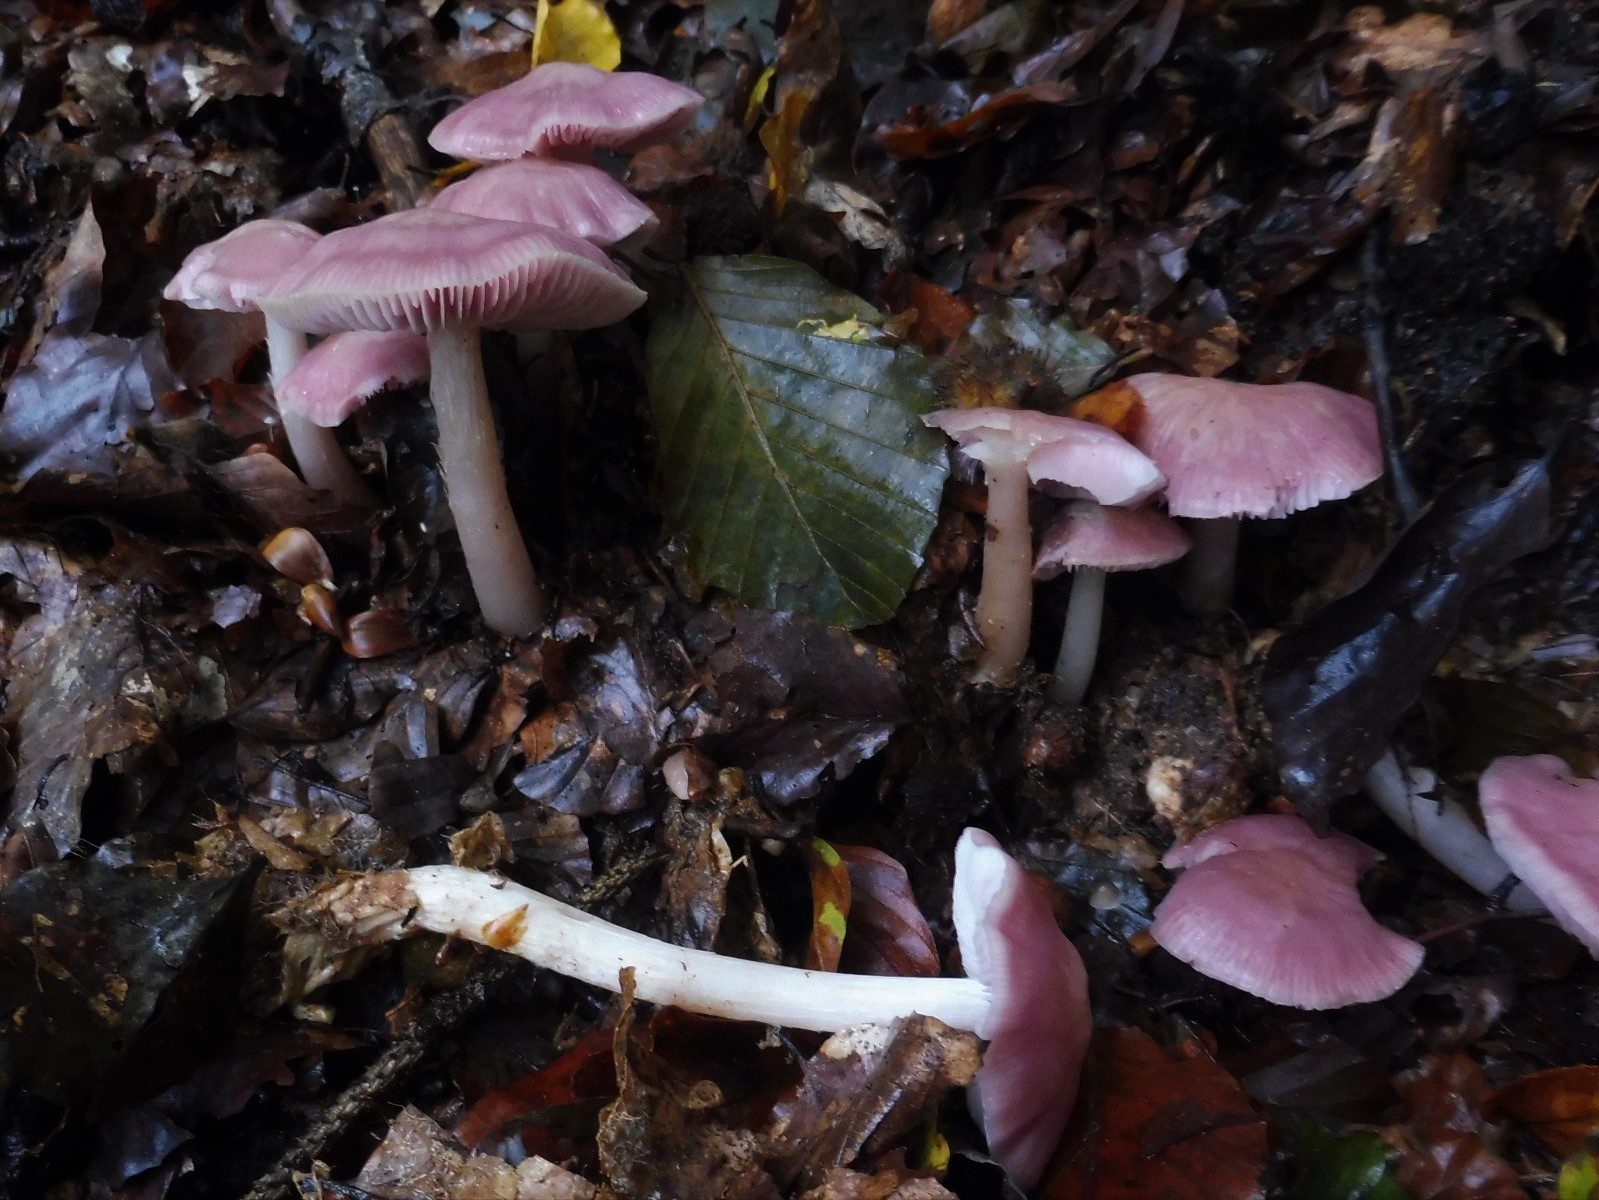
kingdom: Fungi
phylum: Basidiomycota
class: Agaricomycetes
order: Agaricales
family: Mycenaceae
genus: Mycena
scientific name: Mycena rosea
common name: rosa huesvamp
